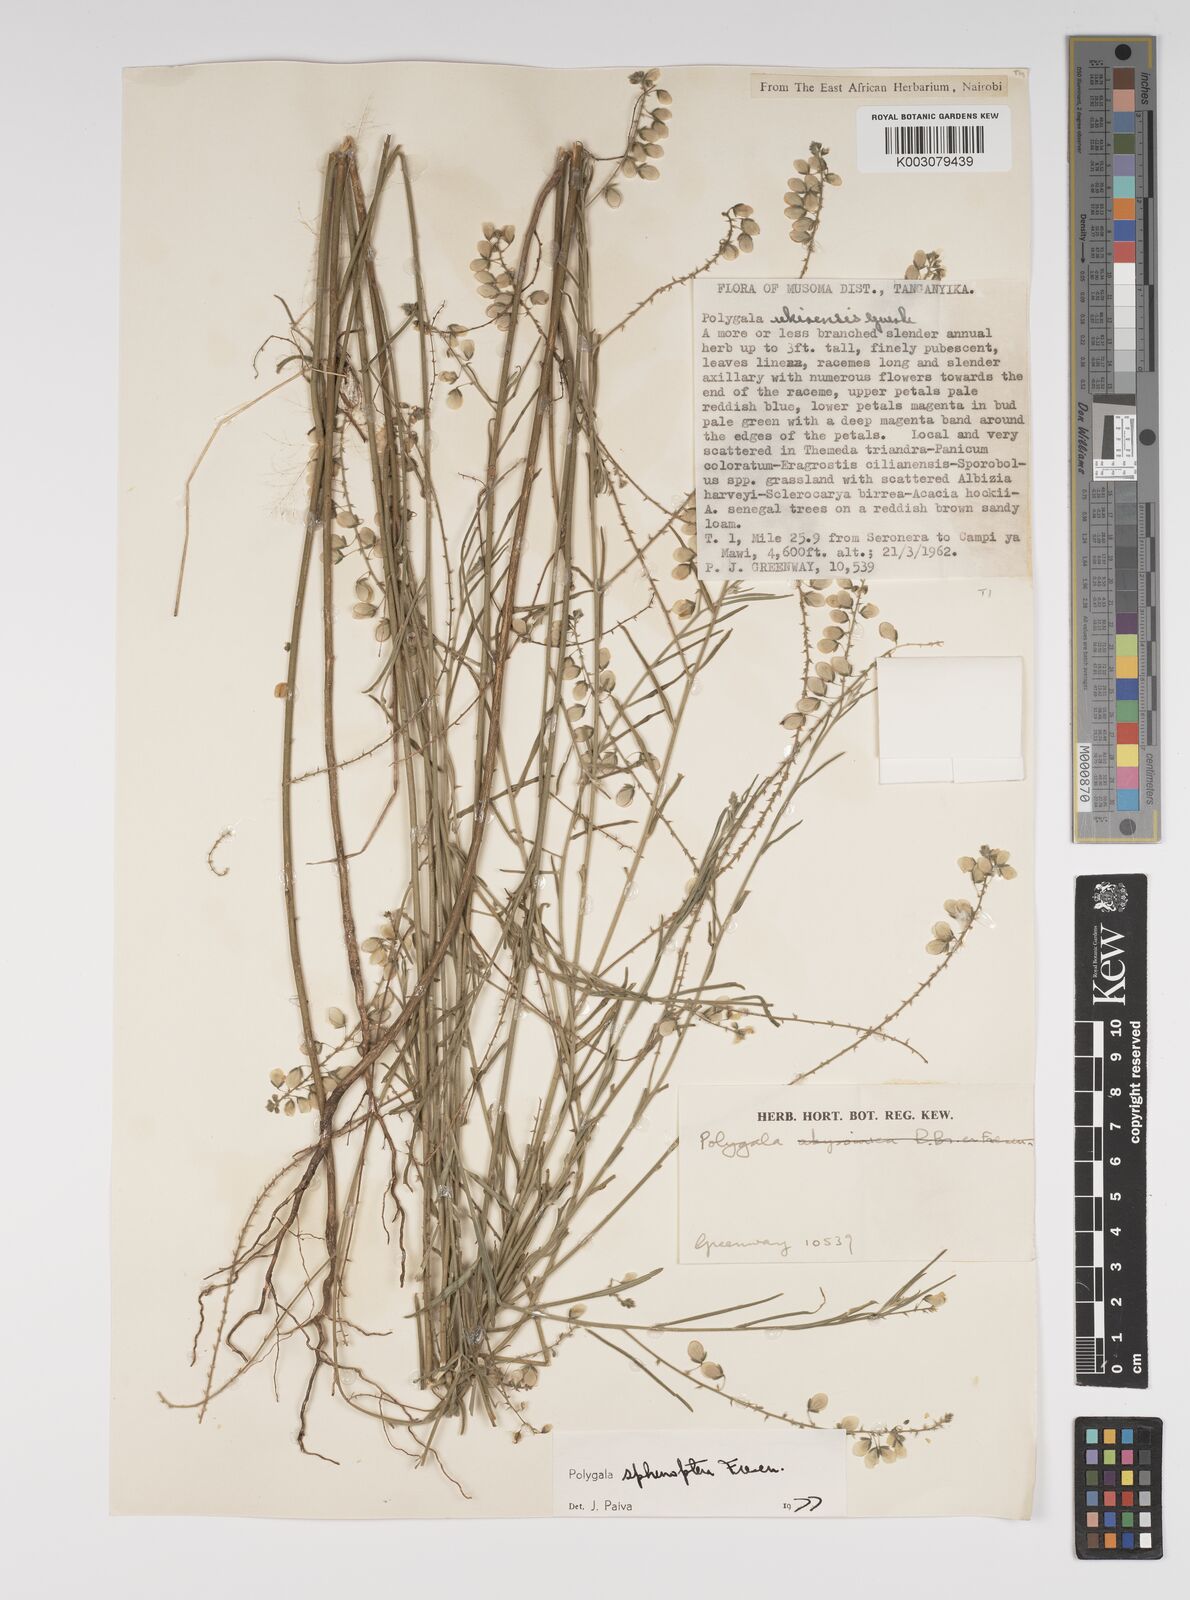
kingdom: Plantae
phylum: Tracheophyta
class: Magnoliopsida
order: Fabales
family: Polygalaceae
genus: Polygala
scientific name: Polygala sphenoptera
